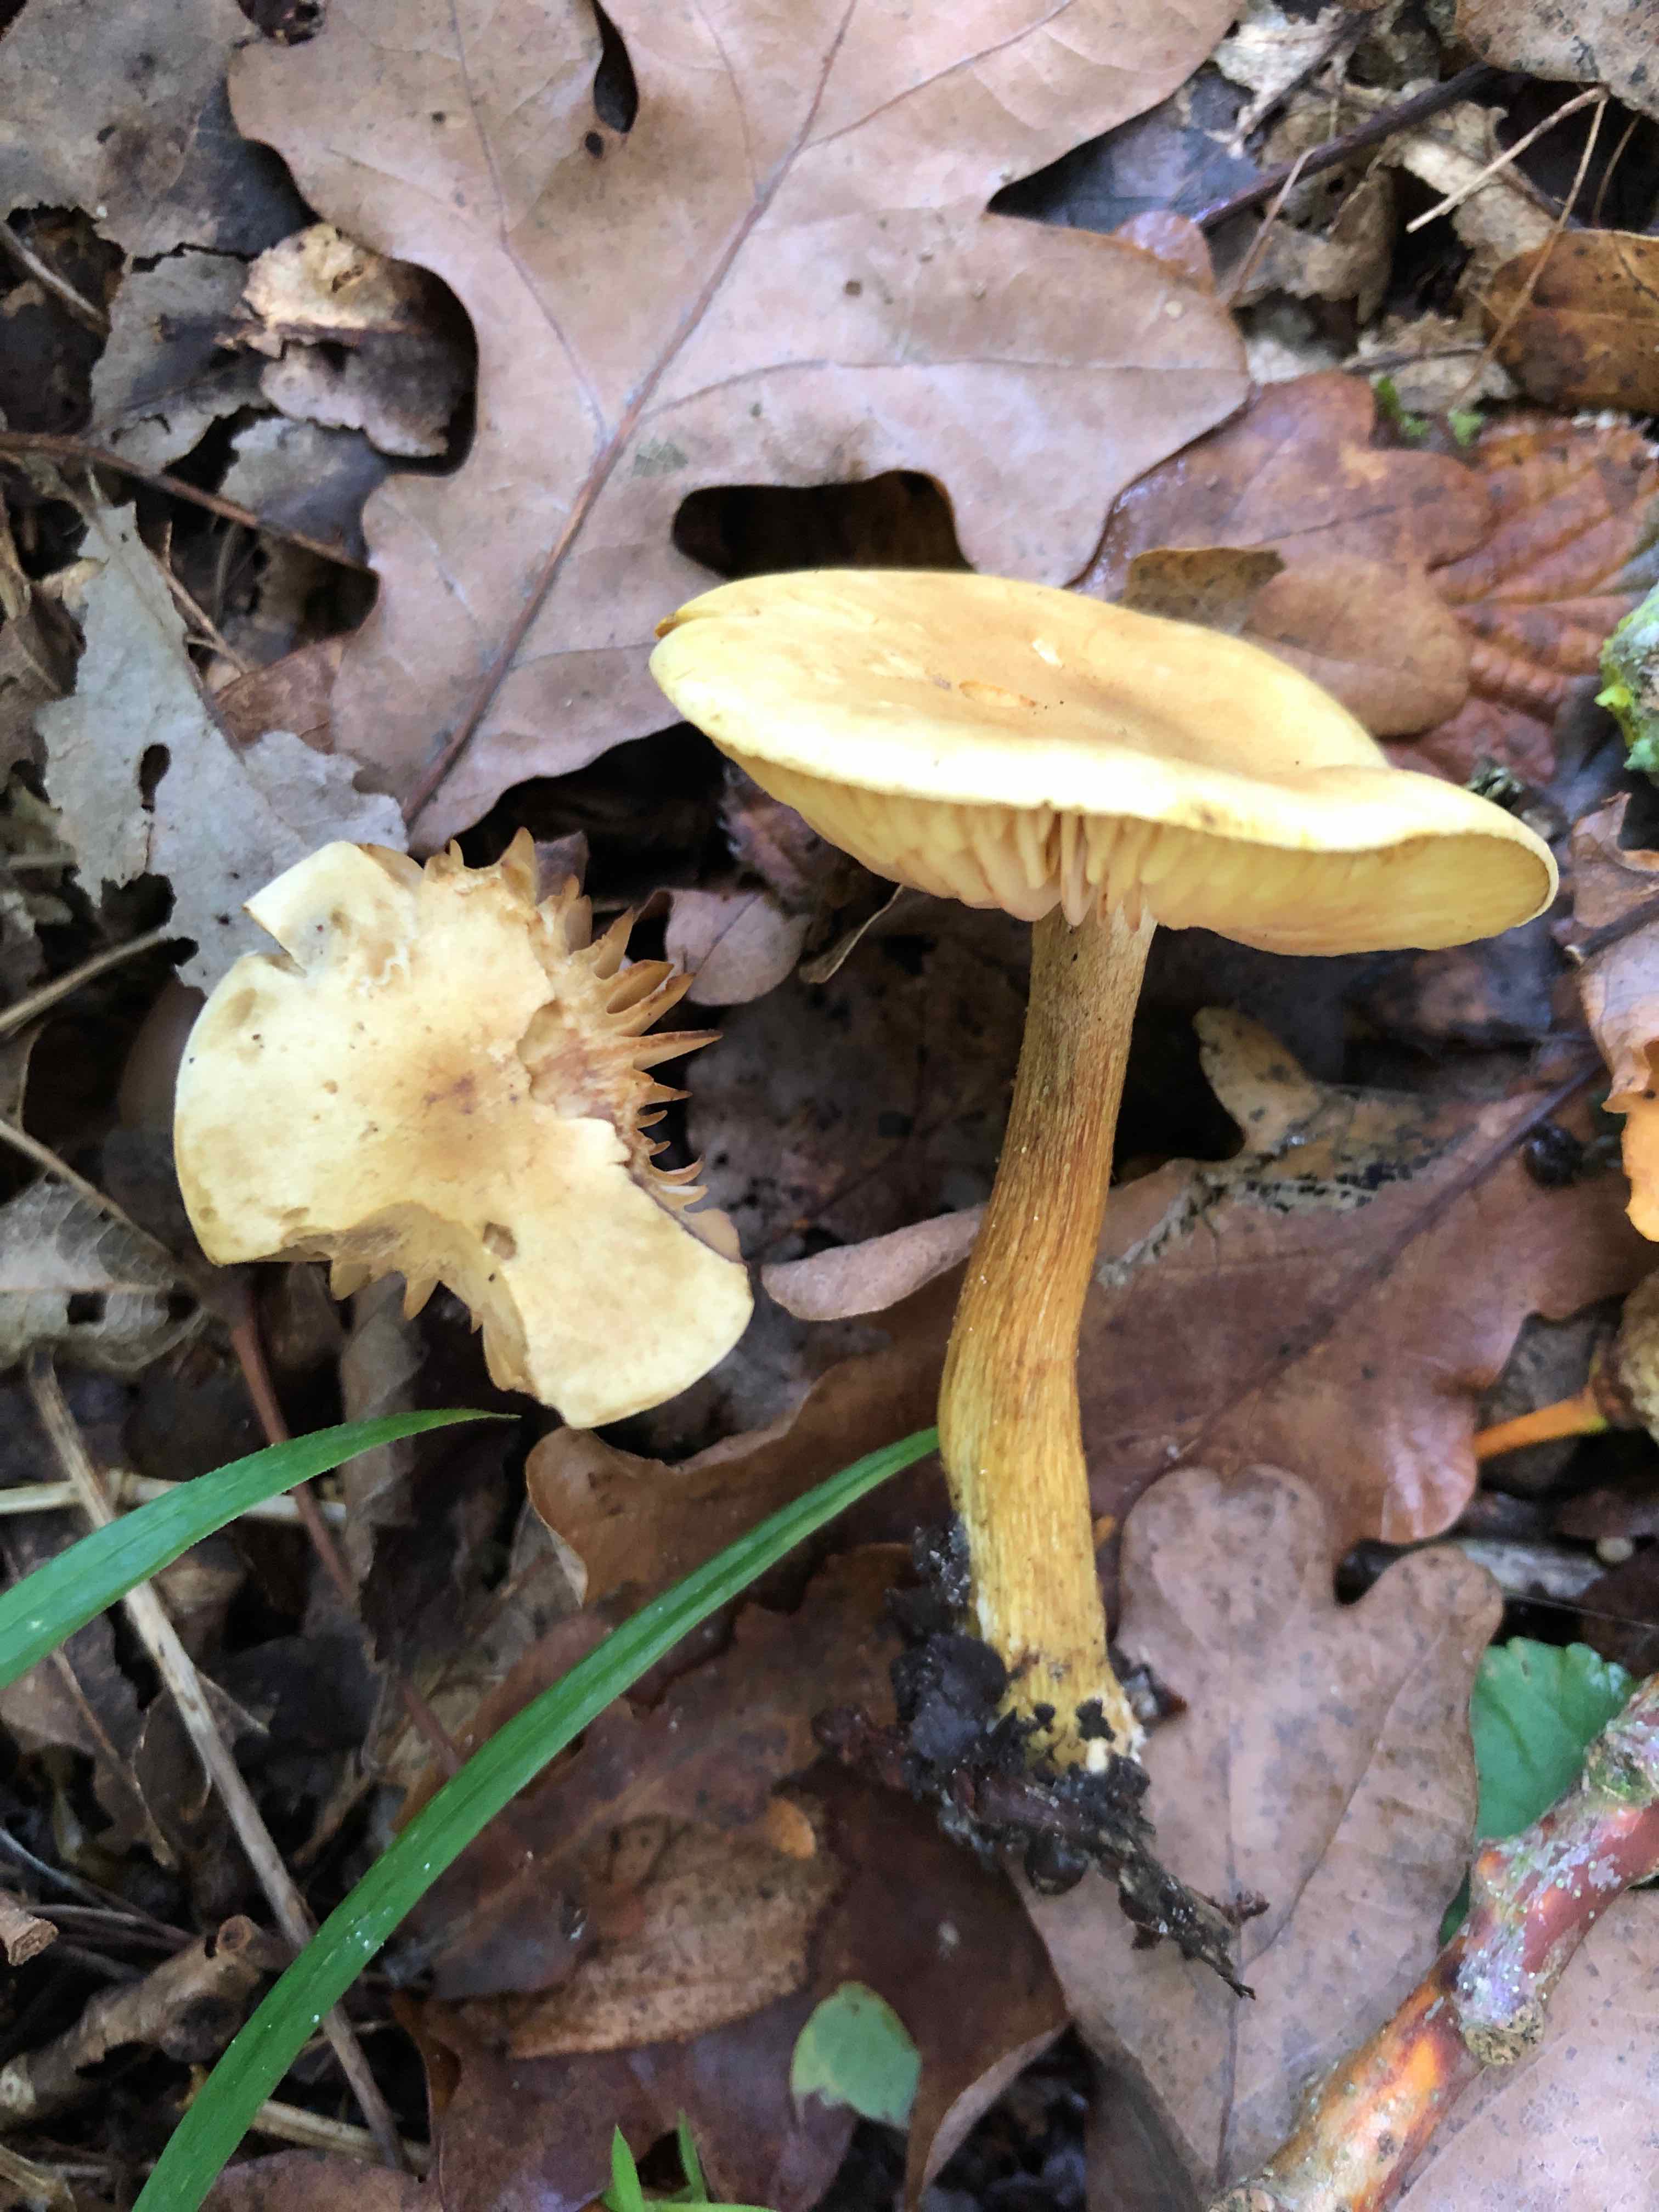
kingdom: Fungi
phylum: Basidiomycota
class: Agaricomycetes
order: Agaricales
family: Tricholomataceae
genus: Tricholoma
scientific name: Tricholoma sulphureum
